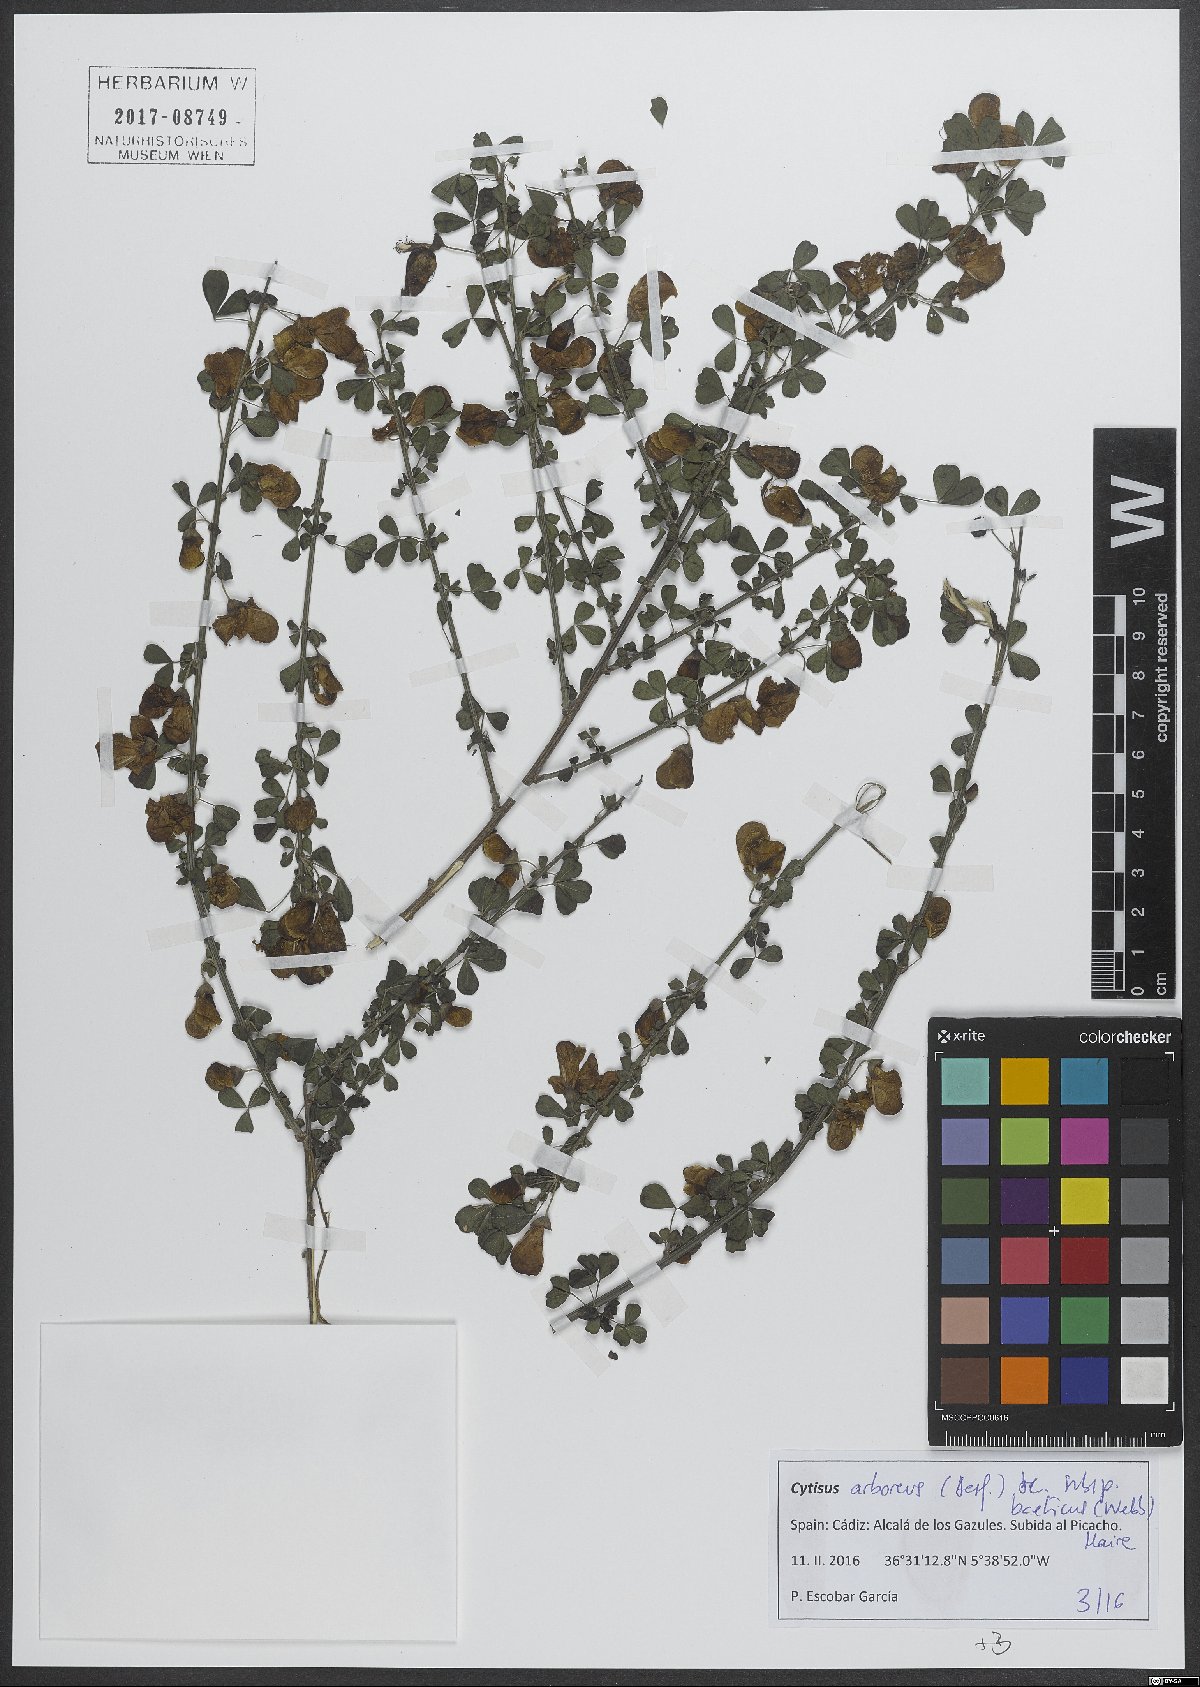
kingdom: Plantae
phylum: Tracheophyta
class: Magnoliopsida
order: Fabales
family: Fabaceae
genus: Cytisus
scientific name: Cytisus arboreus
